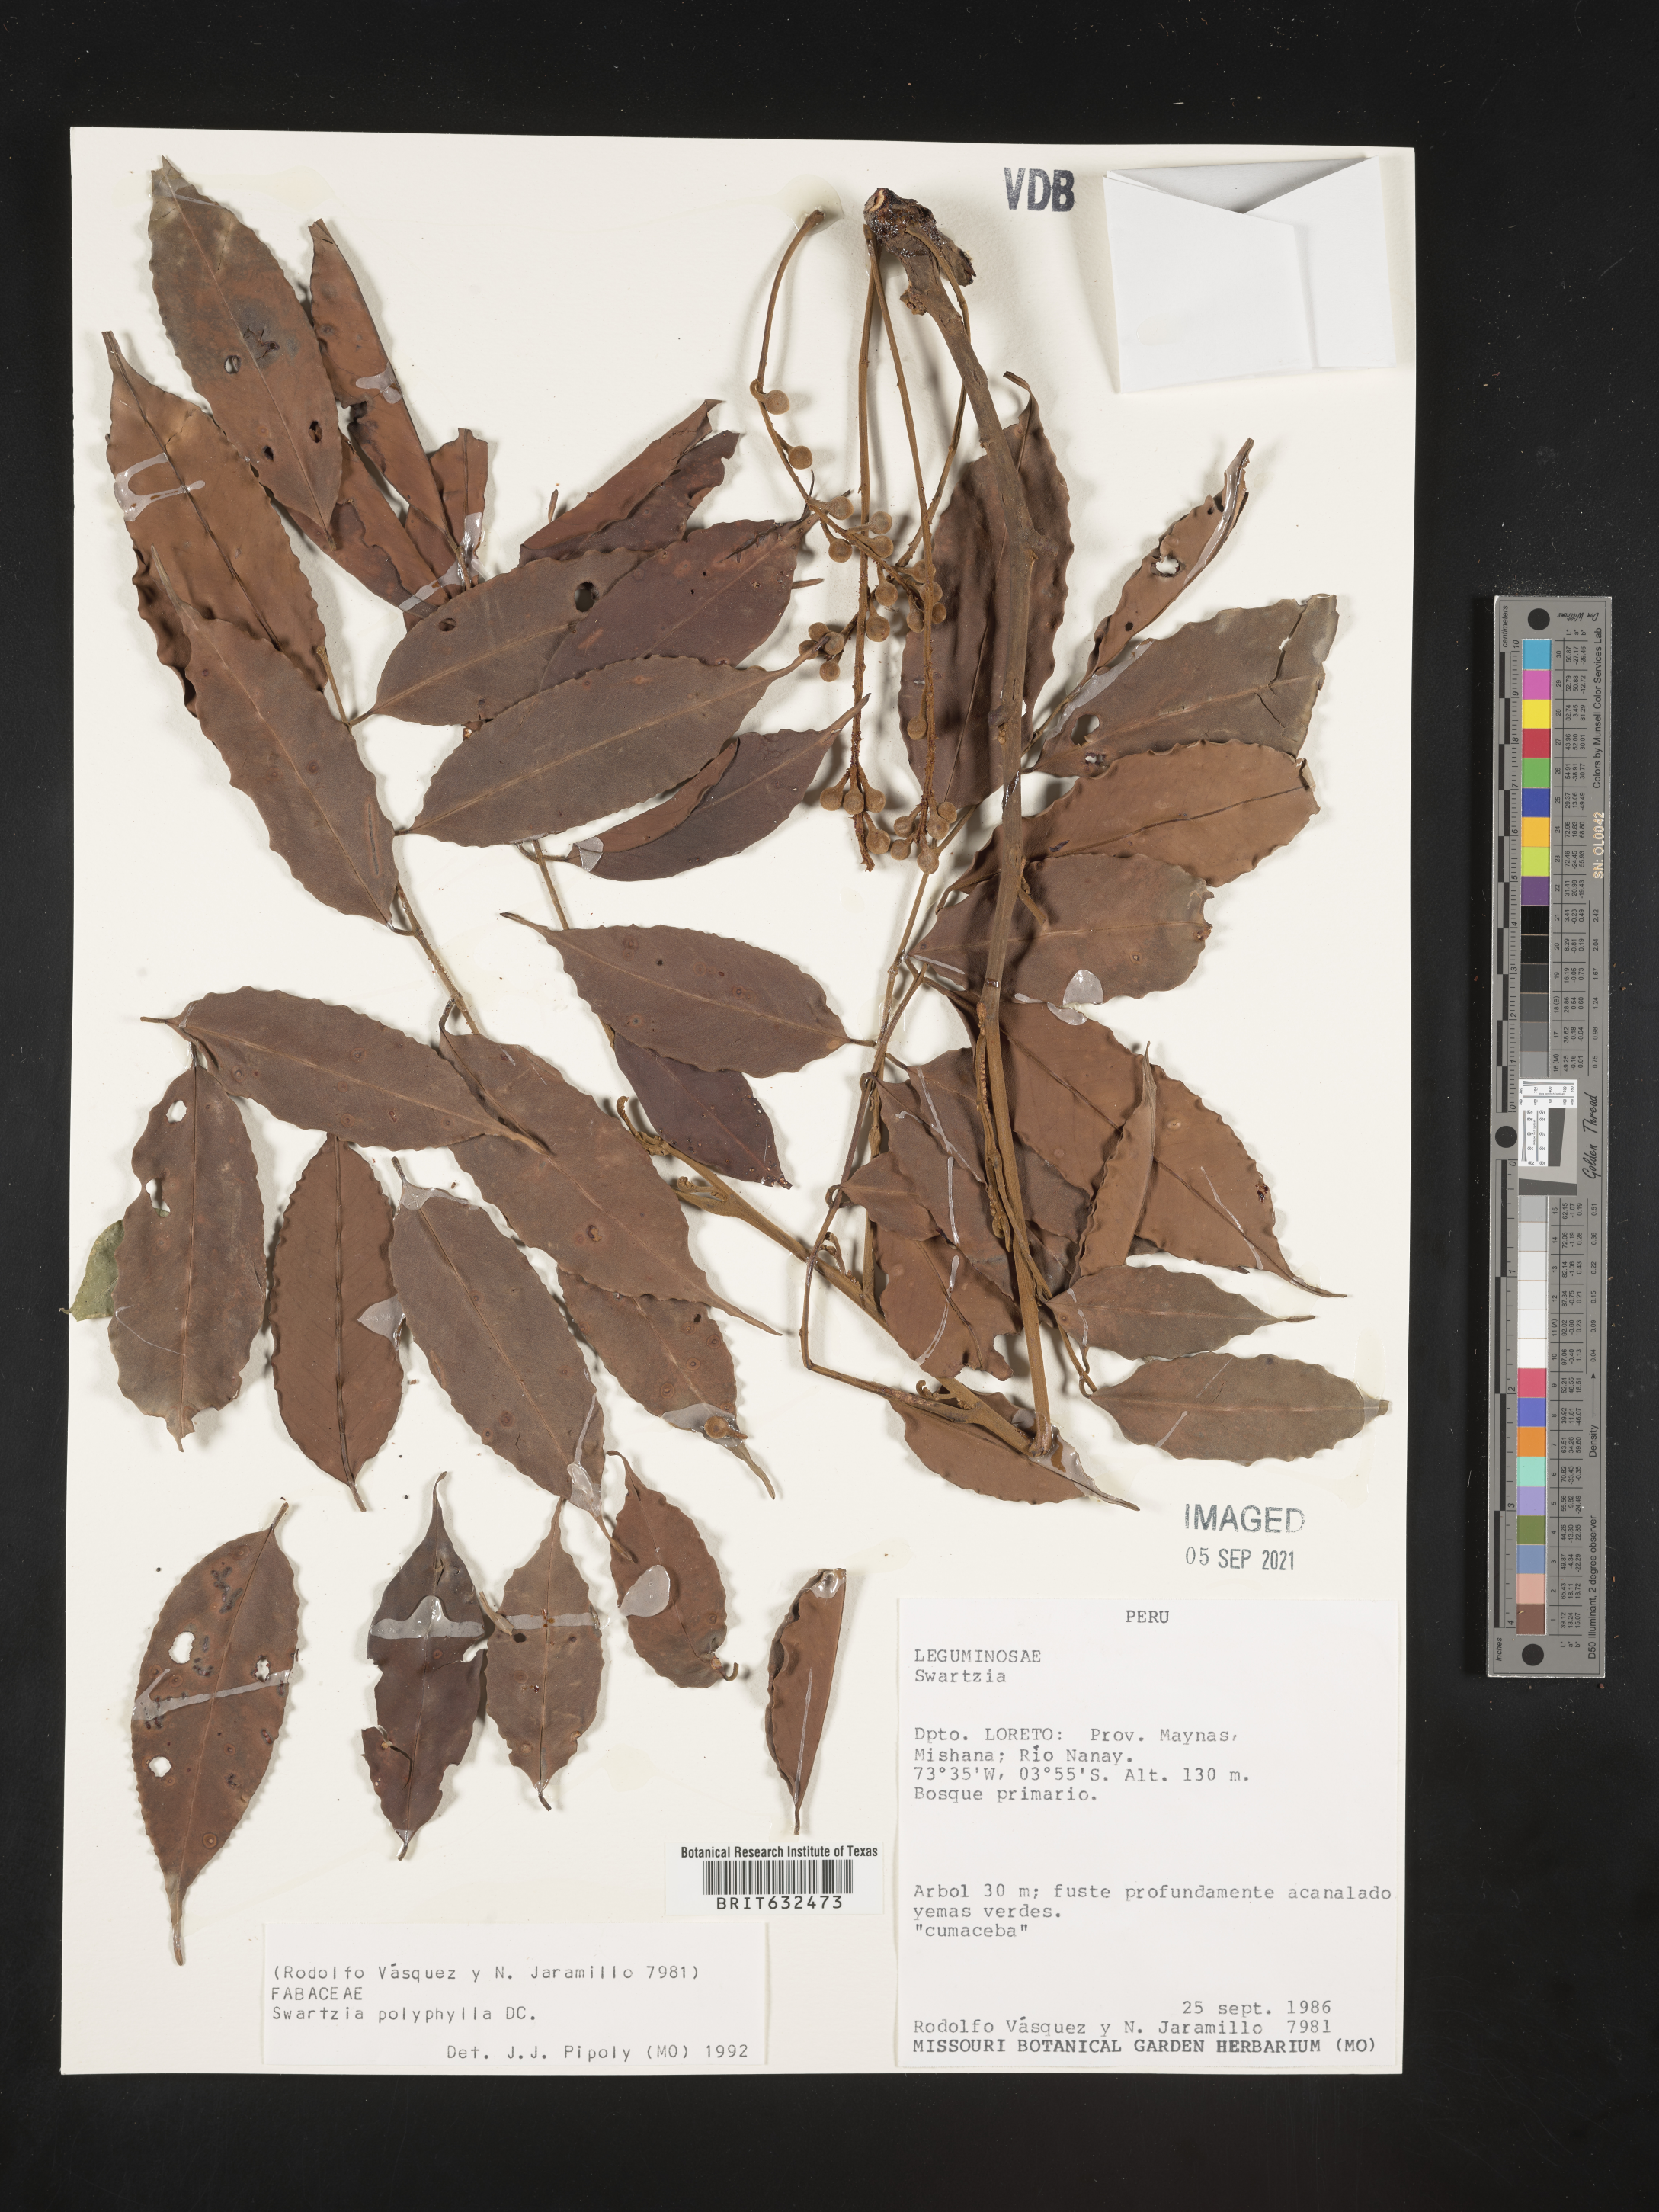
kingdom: Plantae
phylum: Tracheophyta
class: Magnoliopsida
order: Fabales
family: Fabaceae
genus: Swartzia
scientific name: Swartzia
